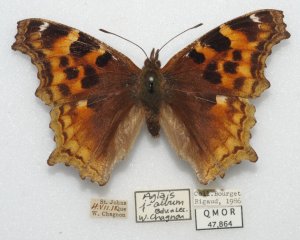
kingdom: Animalia
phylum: Arthropoda
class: Insecta
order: Lepidoptera
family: Nymphalidae
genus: Polygonia
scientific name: Polygonia vaualbum
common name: Compton Tortoiseshell
